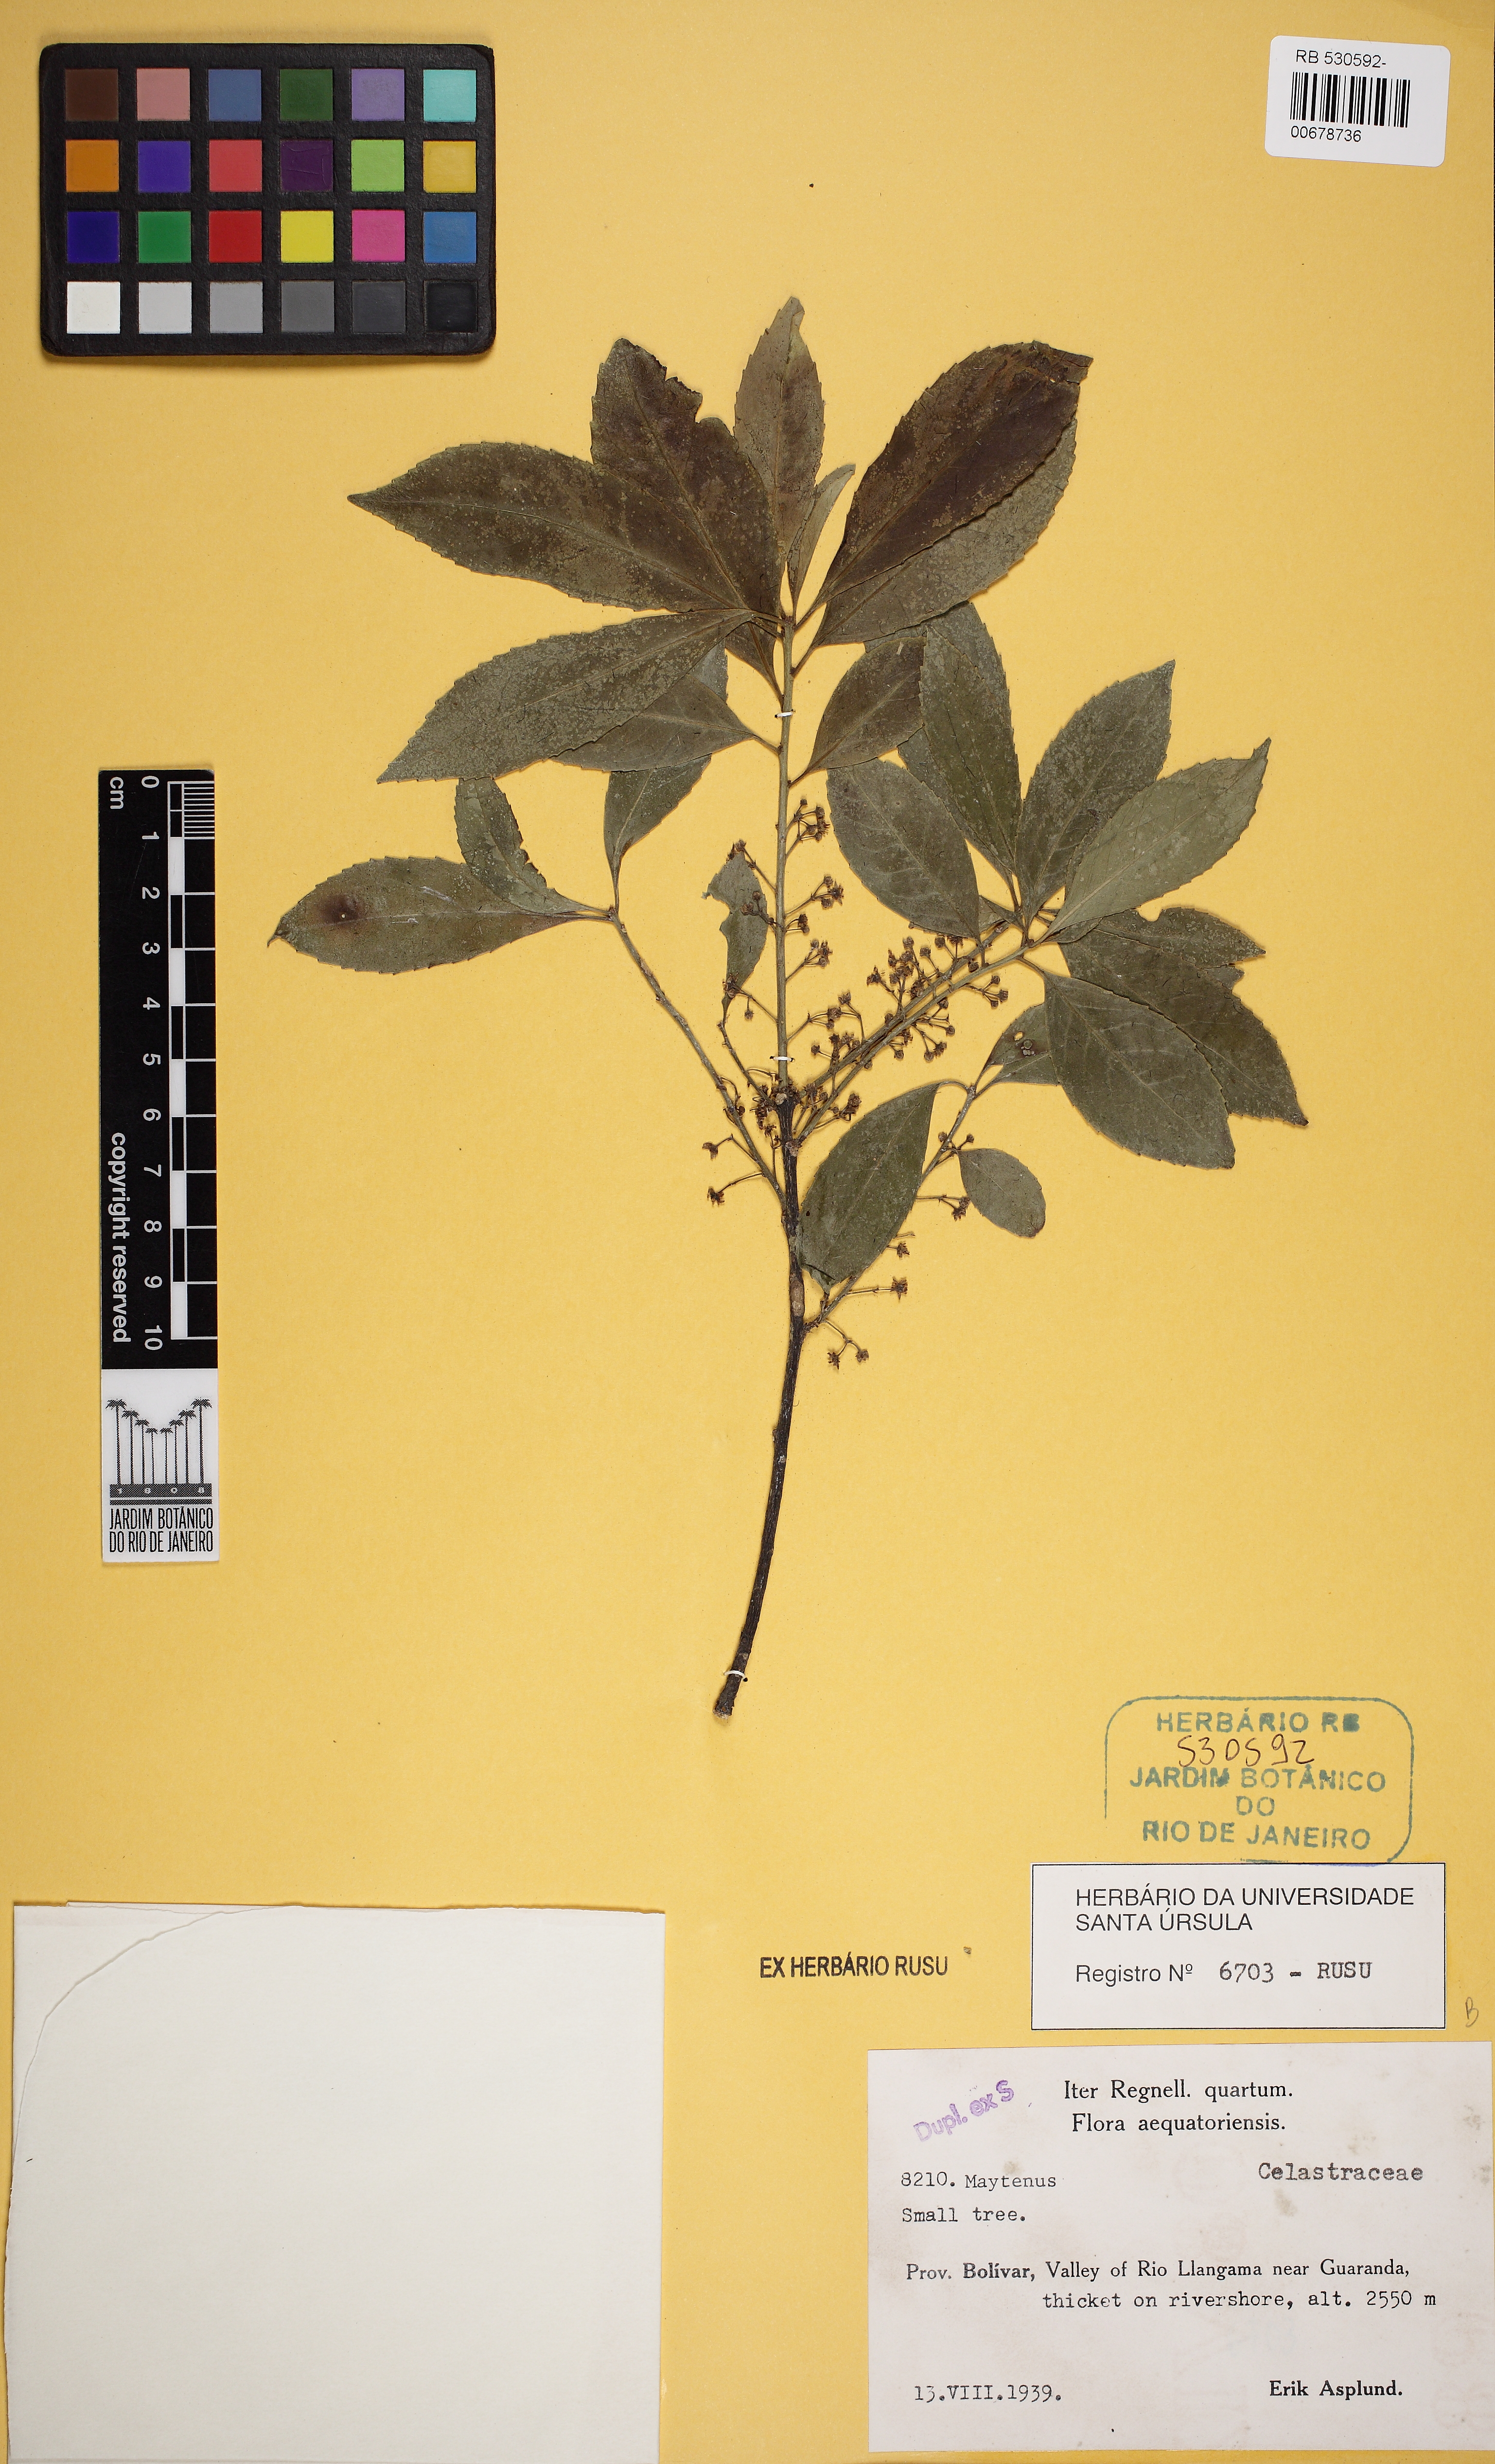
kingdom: Plantae
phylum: Tracheophyta
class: Magnoliopsida
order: Celastrales
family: Celastraceae
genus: Maytenus
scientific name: Maytenus verticillata
